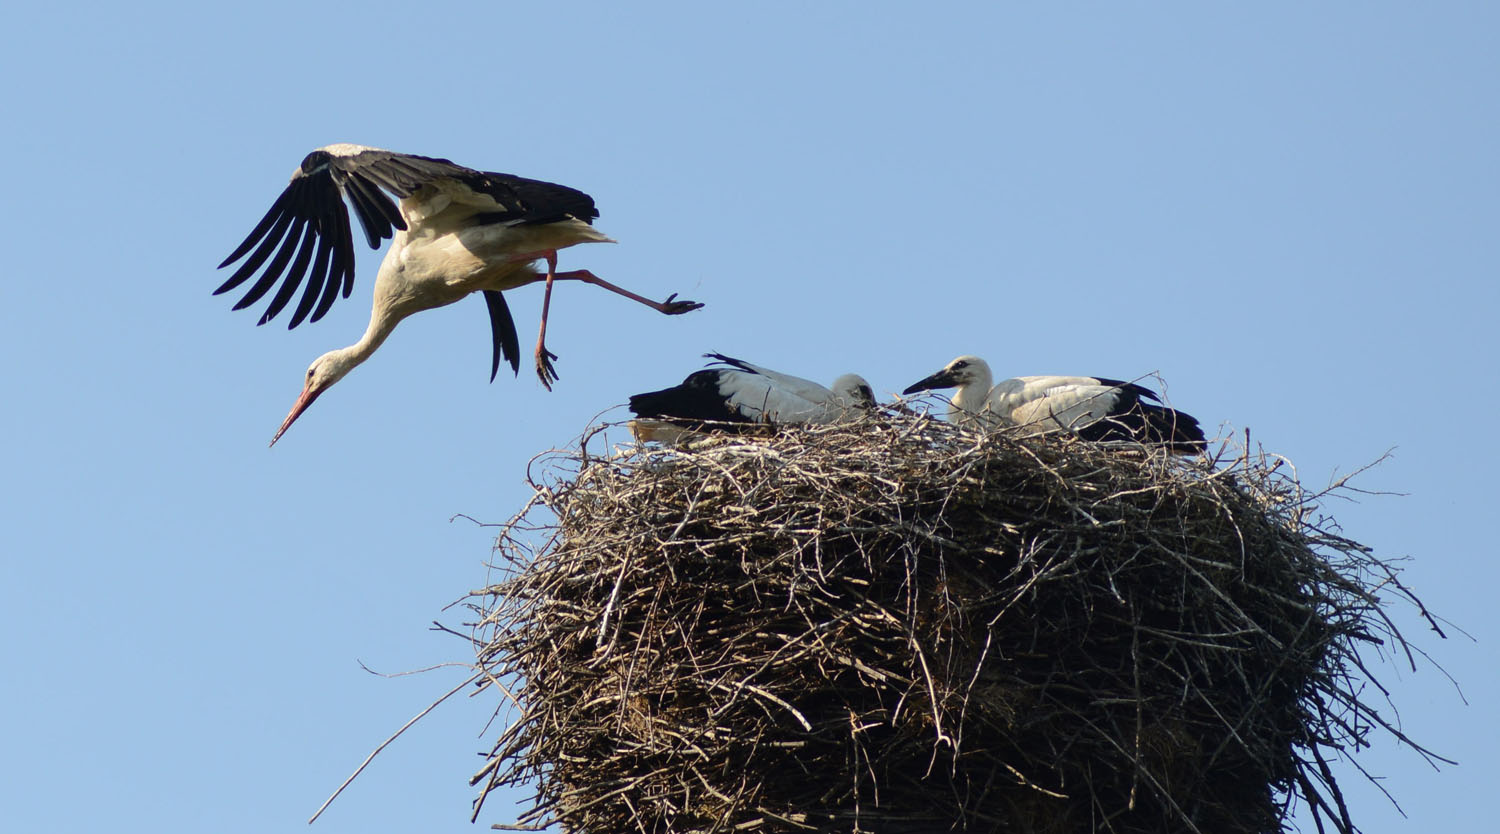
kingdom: Animalia
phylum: Chordata
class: Aves
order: Ciconiiformes
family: Ciconiidae
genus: Ciconia
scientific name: Ciconia ciconia
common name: White stork
